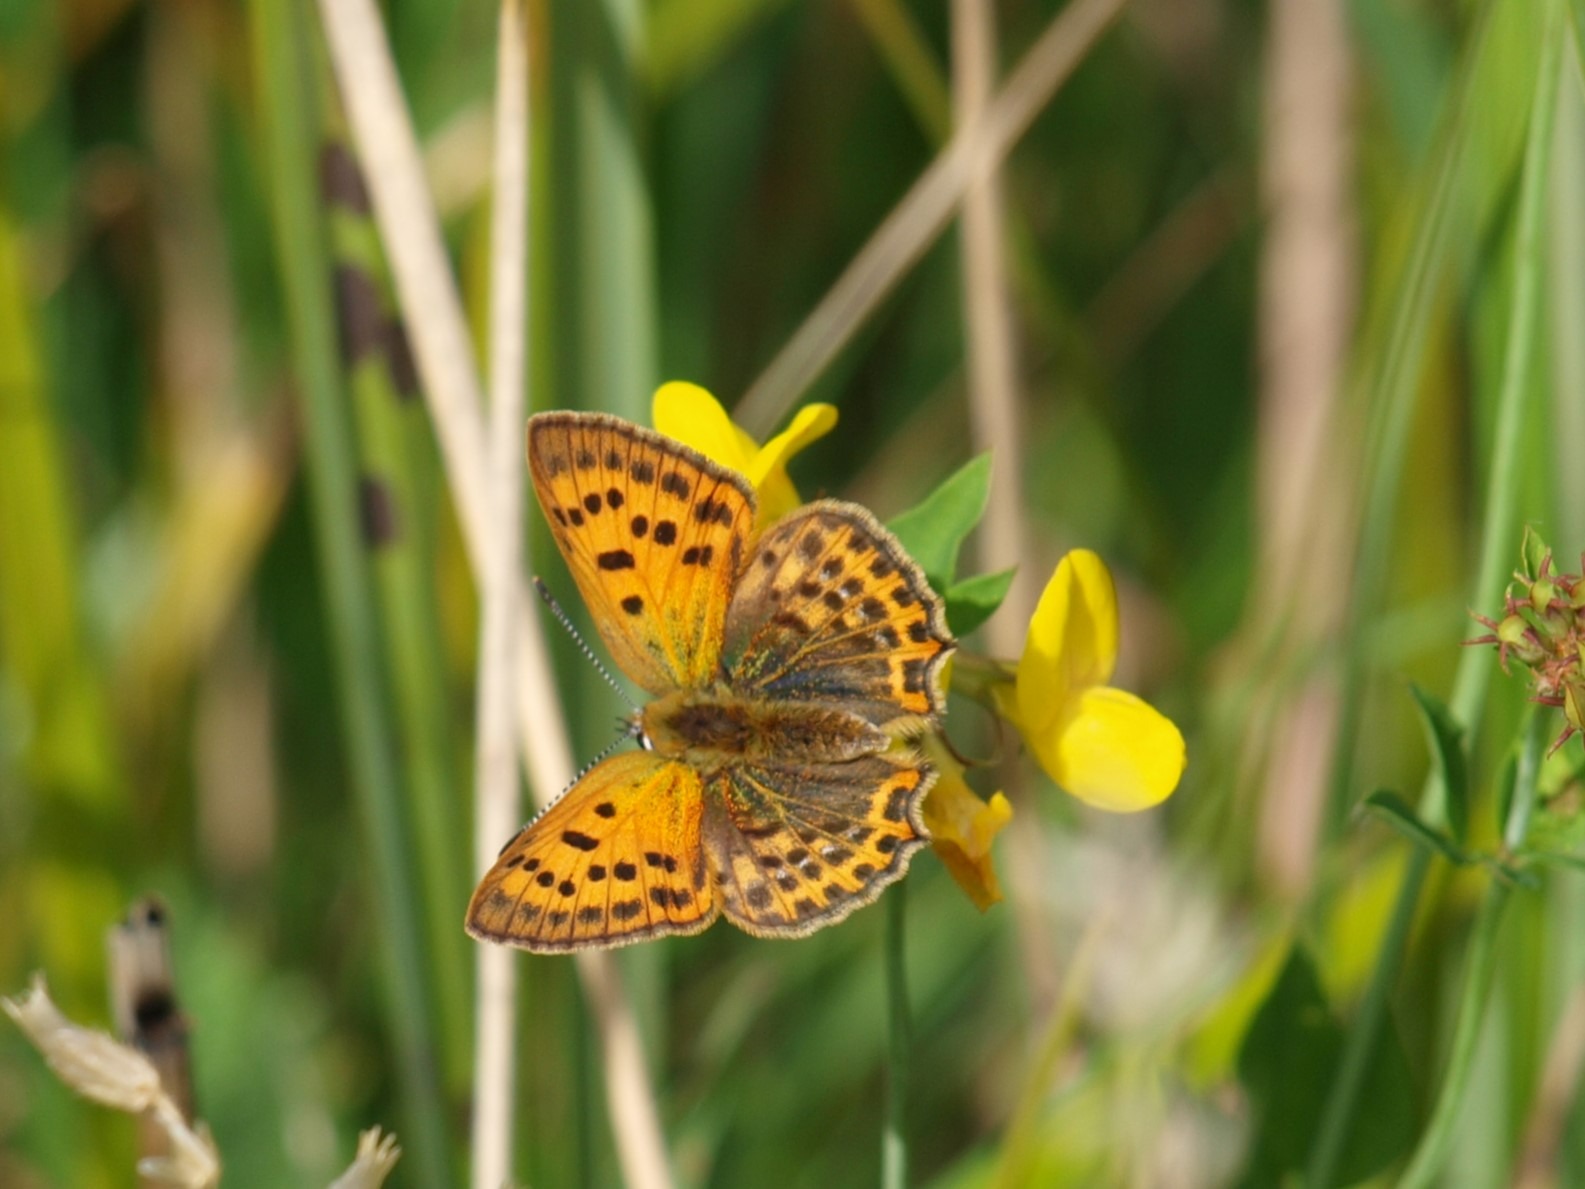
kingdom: Animalia
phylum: Arthropoda
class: Insecta
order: Lepidoptera
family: Lycaenidae
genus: Lycaena
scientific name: Lycaena virgaureae
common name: Dukatsommerfugl
